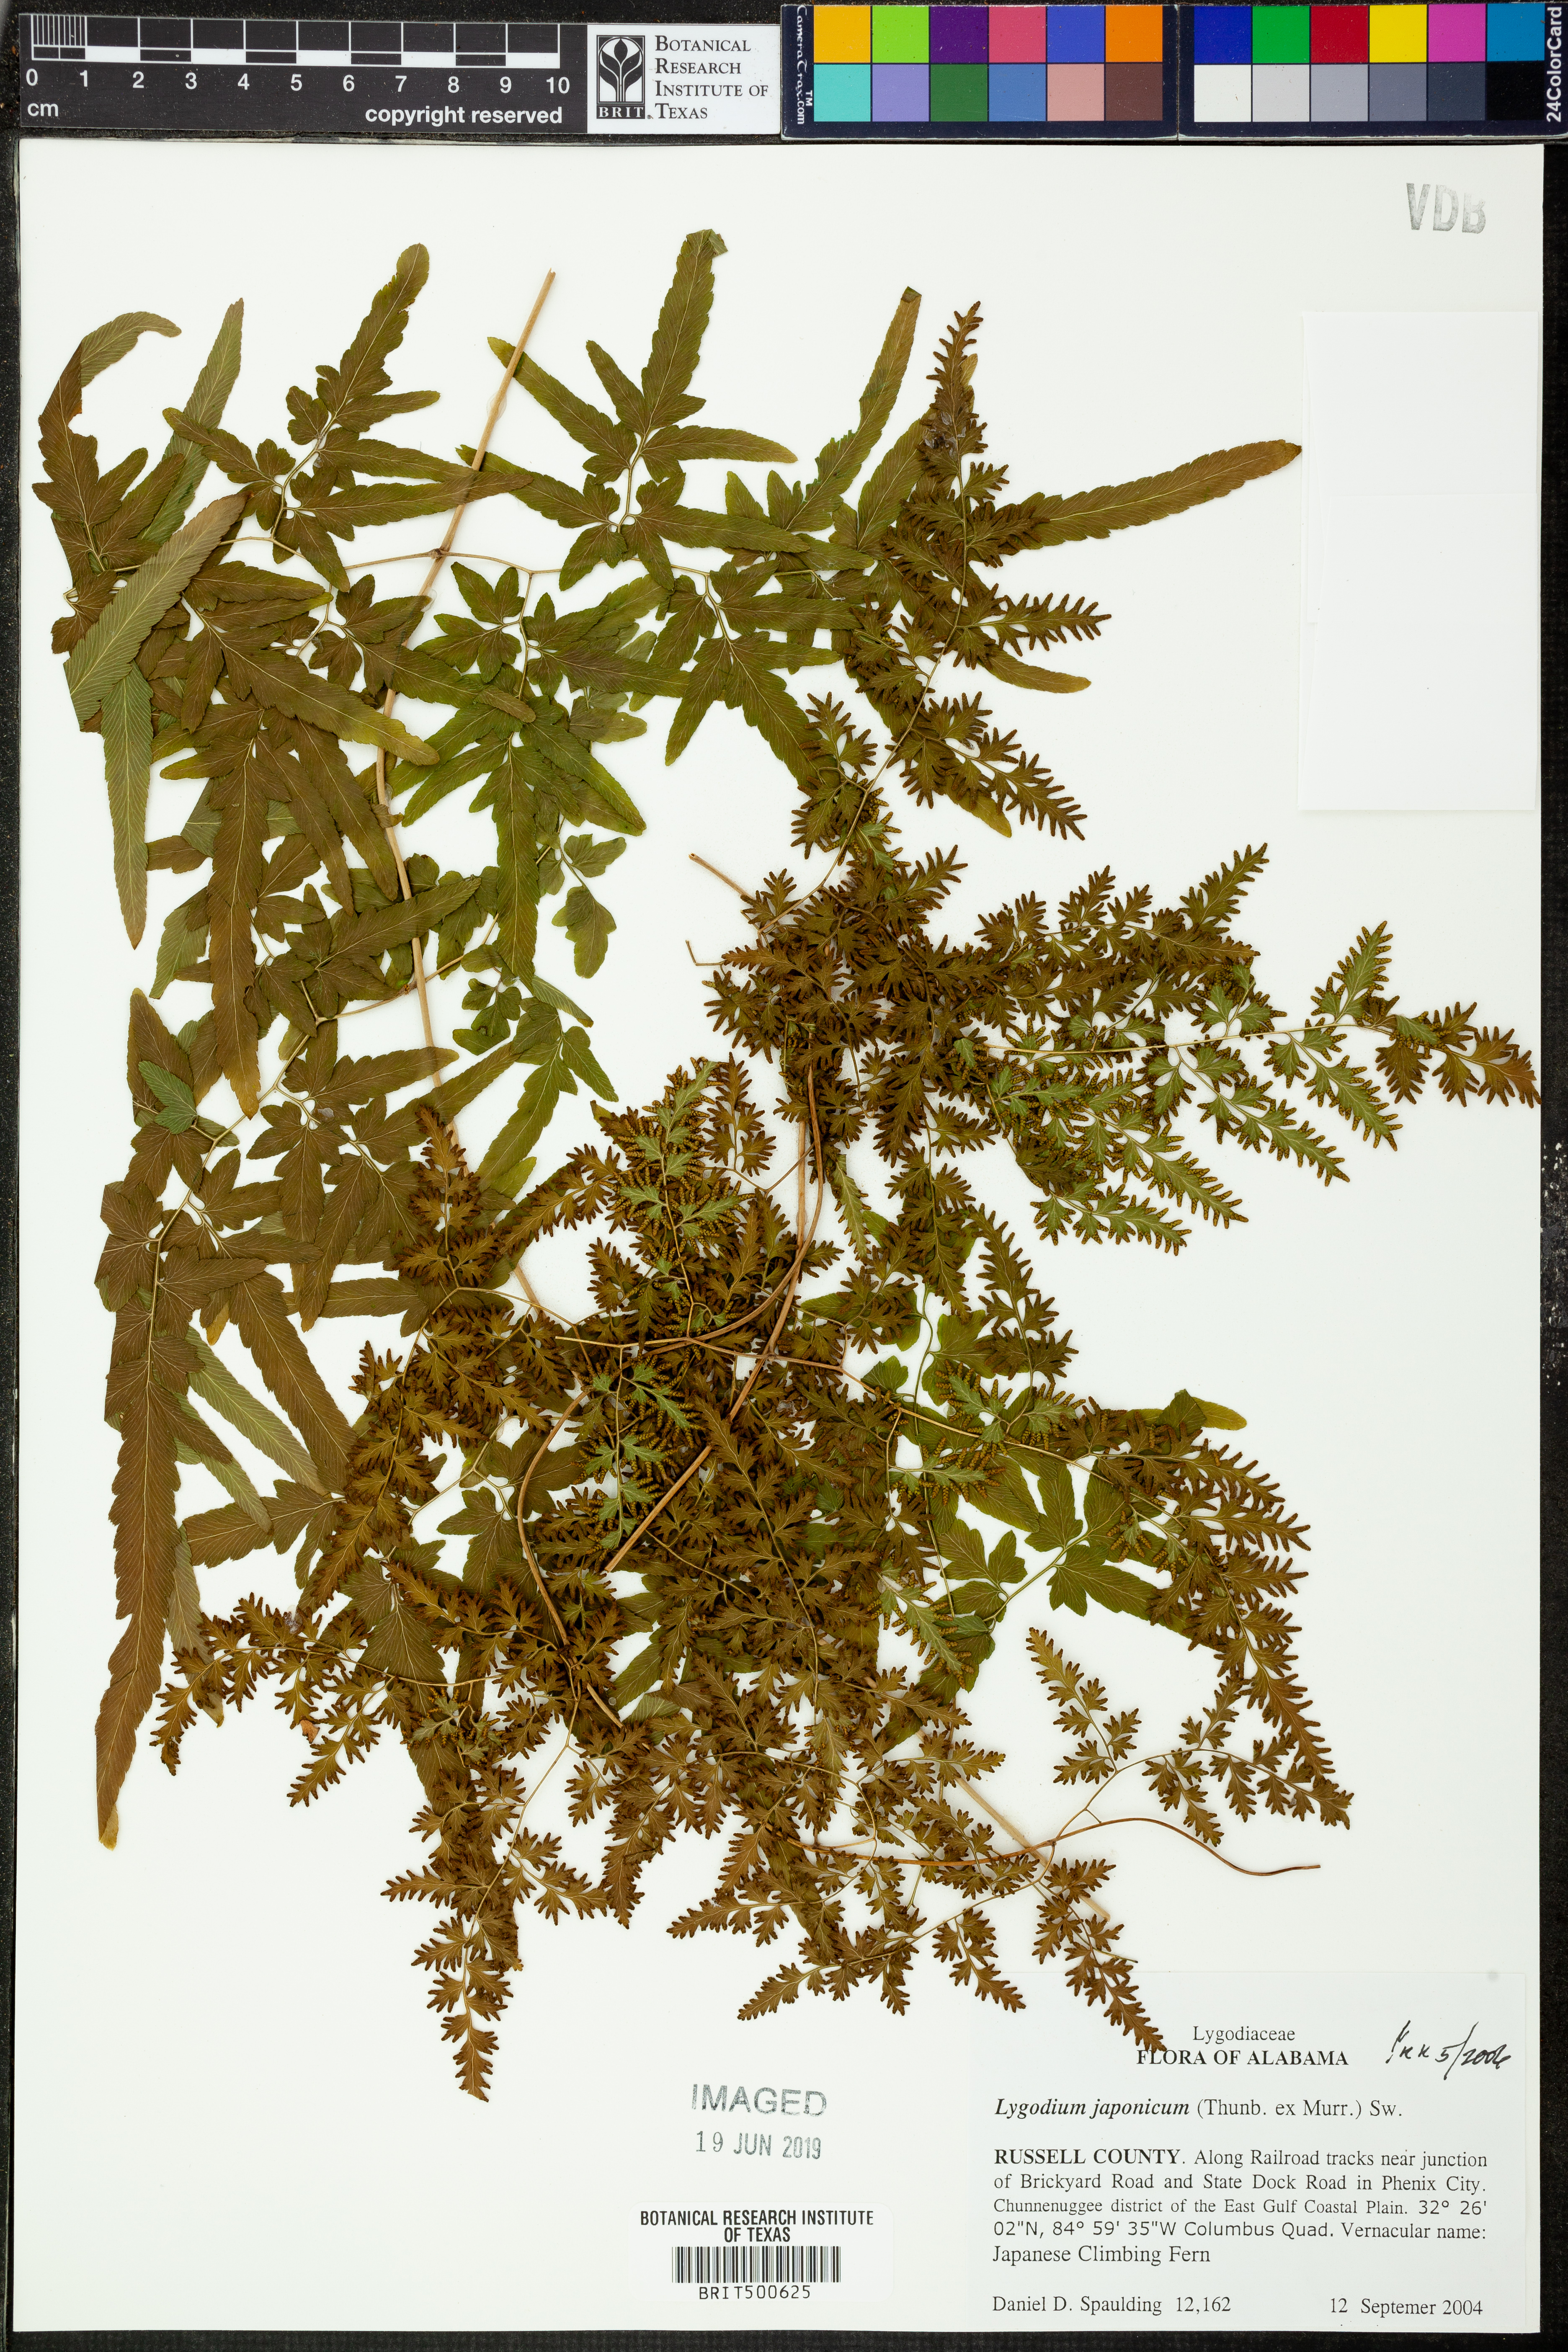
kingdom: Plantae
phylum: Tracheophyta
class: Polypodiopsida
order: Schizaeales
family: Lygodiaceae
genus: Lygodium
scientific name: Lygodium japonicum
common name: Japanese climbing fern
